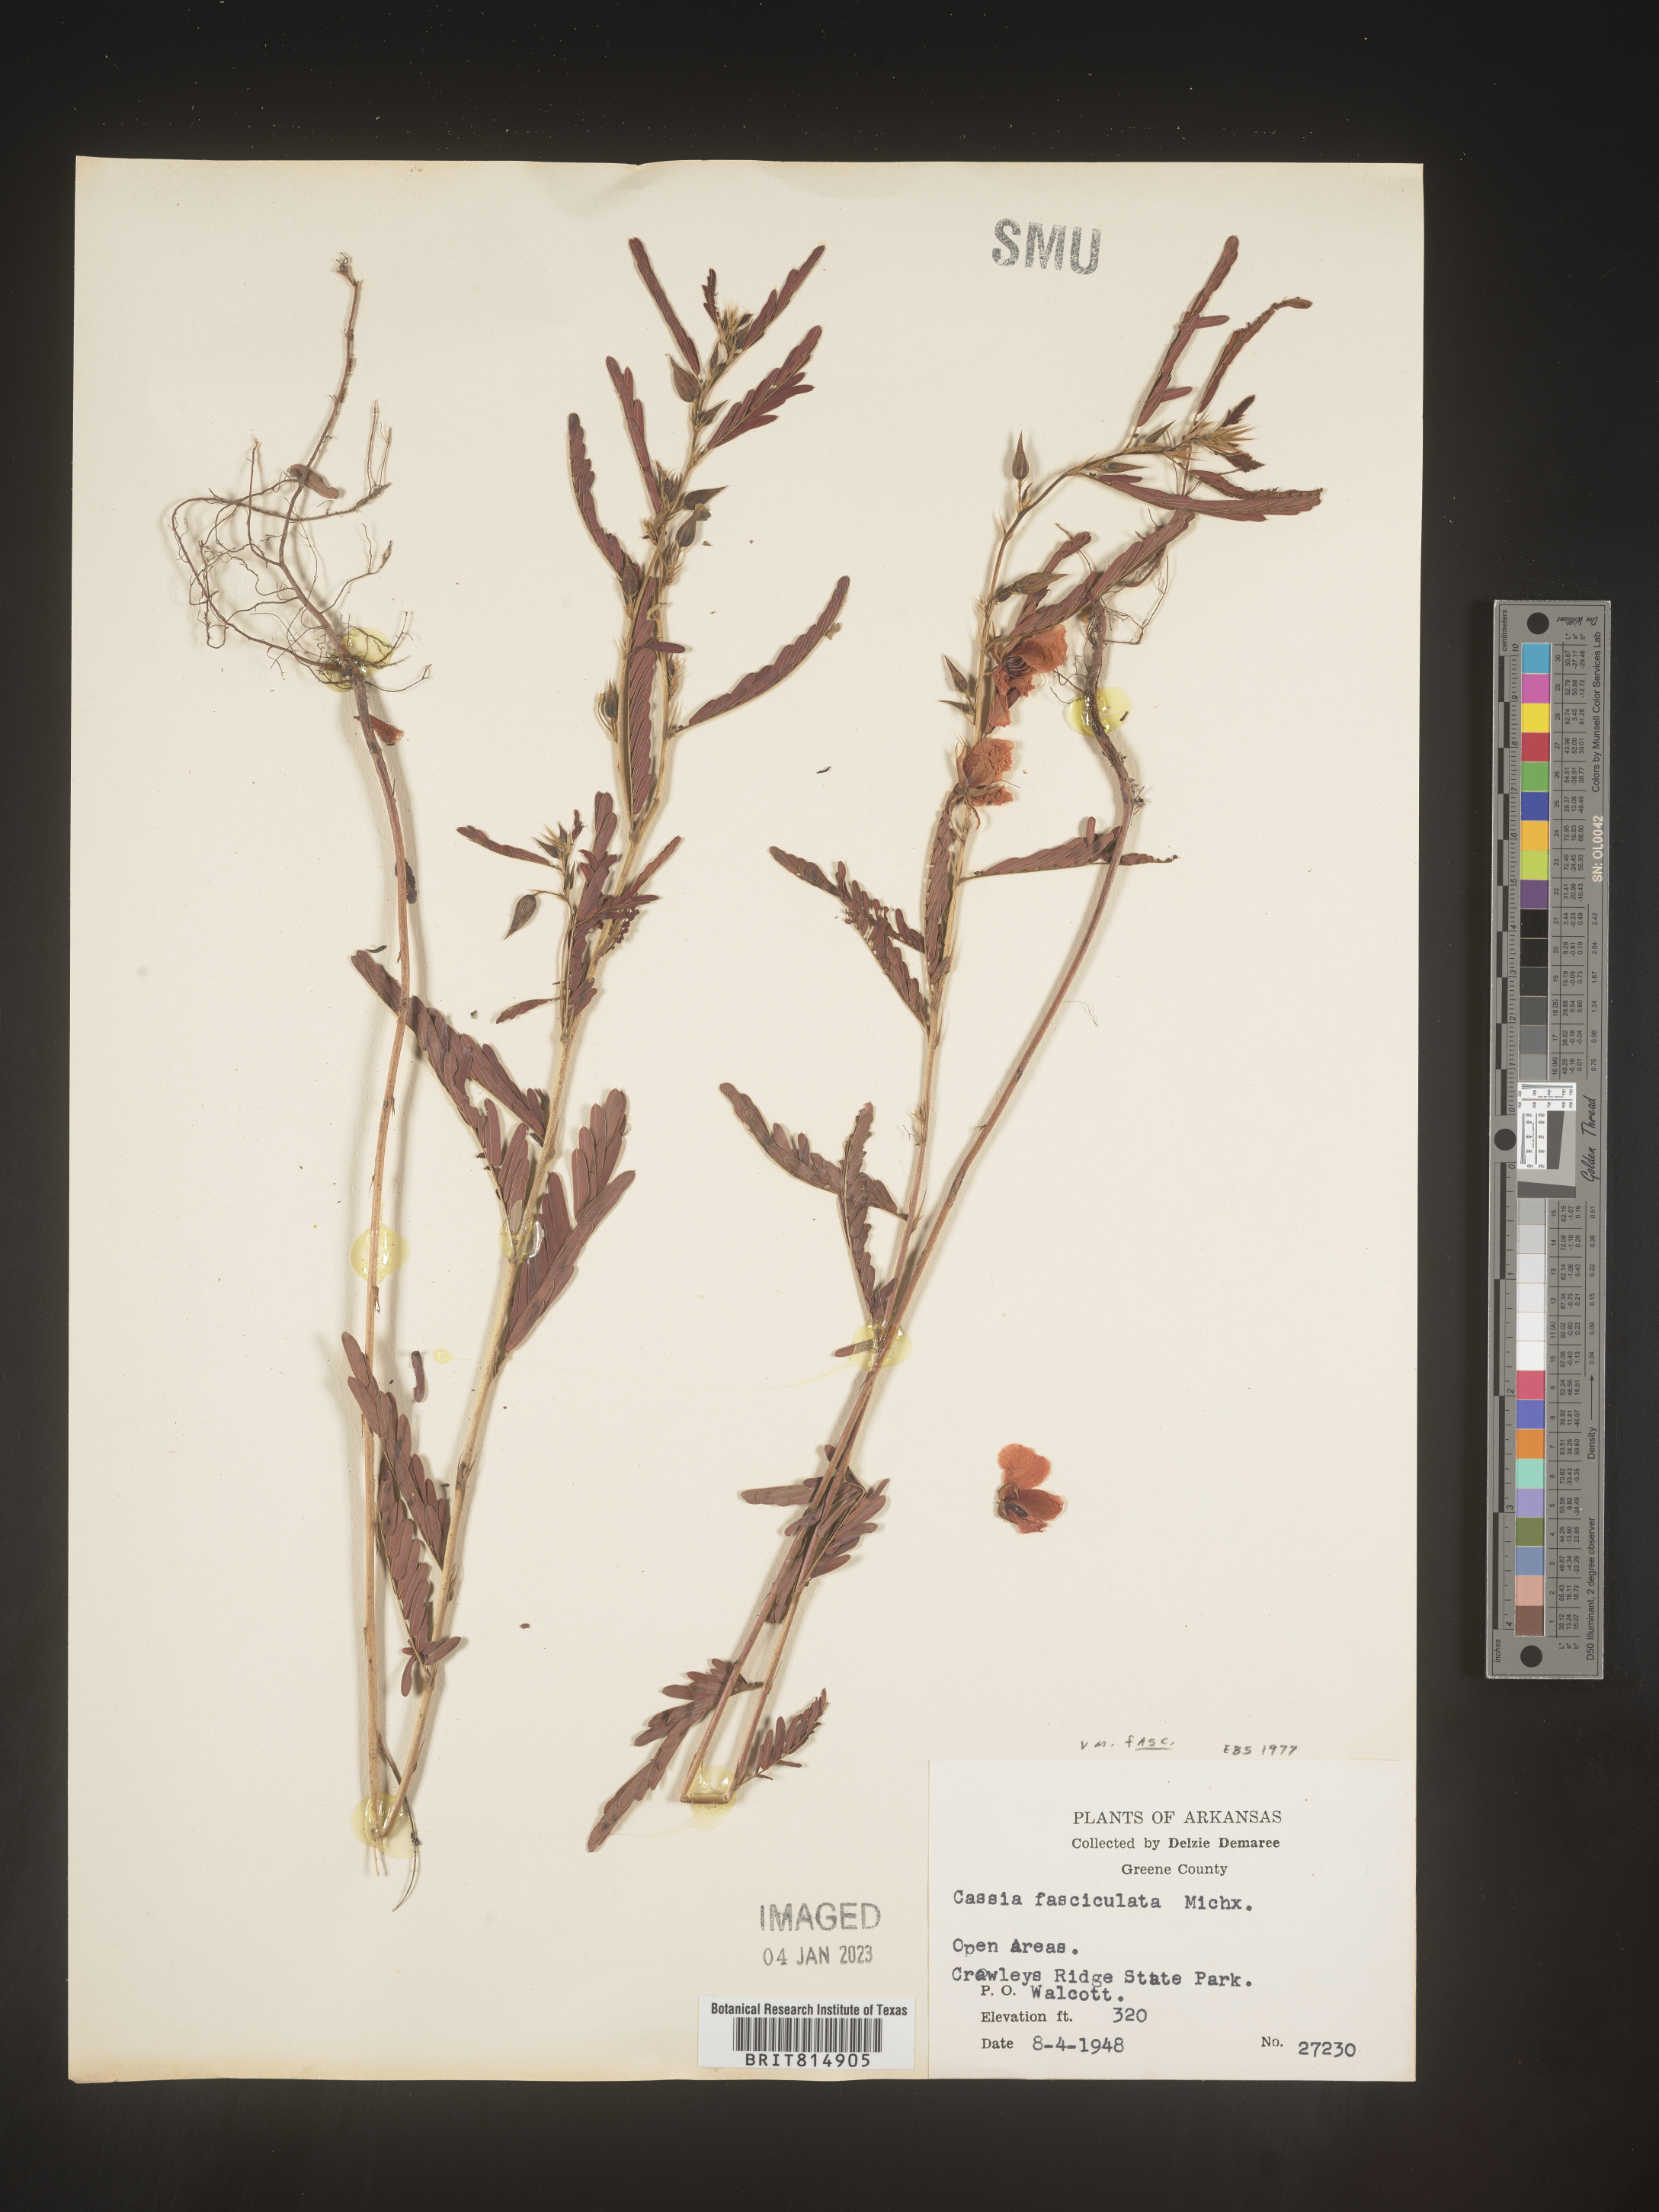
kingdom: Plantae
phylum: Tracheophyta
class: Magnoliopsida
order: Fabales
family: Fabaceae
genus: Chamaecrista
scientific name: Chamaecrista fasciculata
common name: Golden cassia
